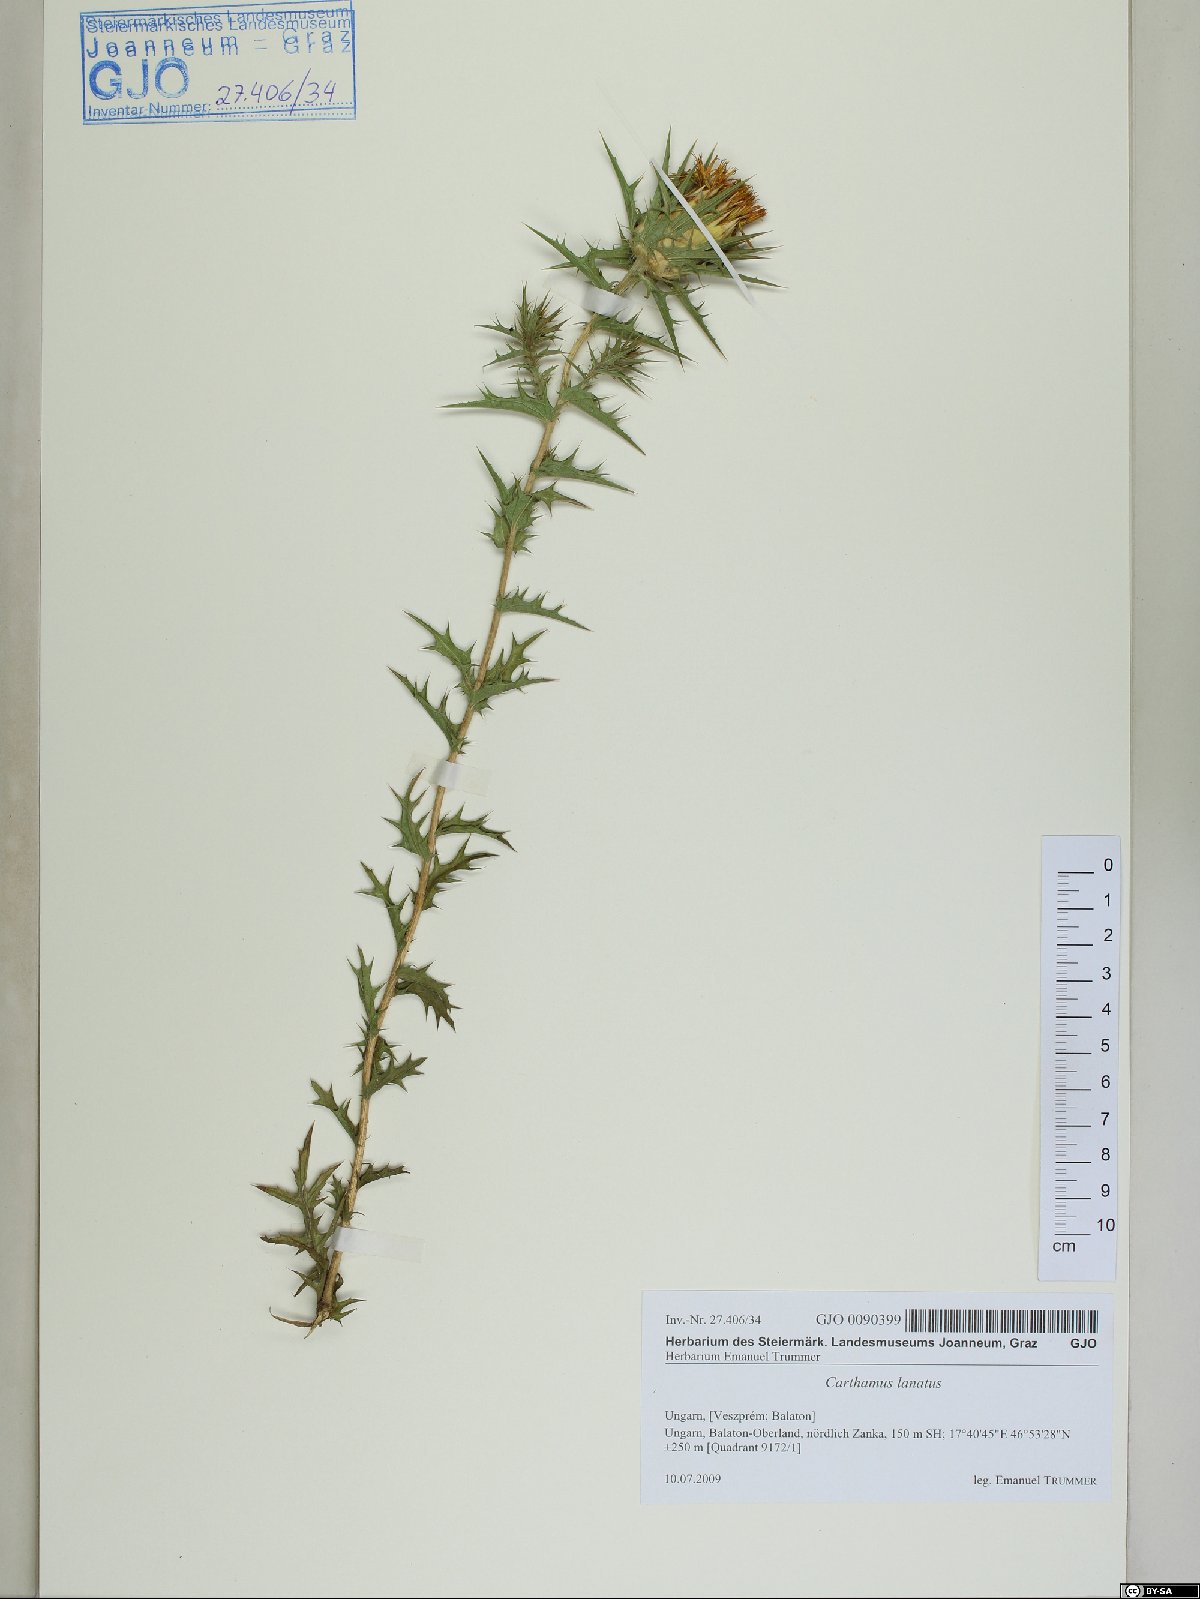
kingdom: Plantae
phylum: Tracheophyta
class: Magnoliopsida
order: Asterales
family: Asteraceae
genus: Carthamus
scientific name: Carthamus lanatus
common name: Downy safflower
